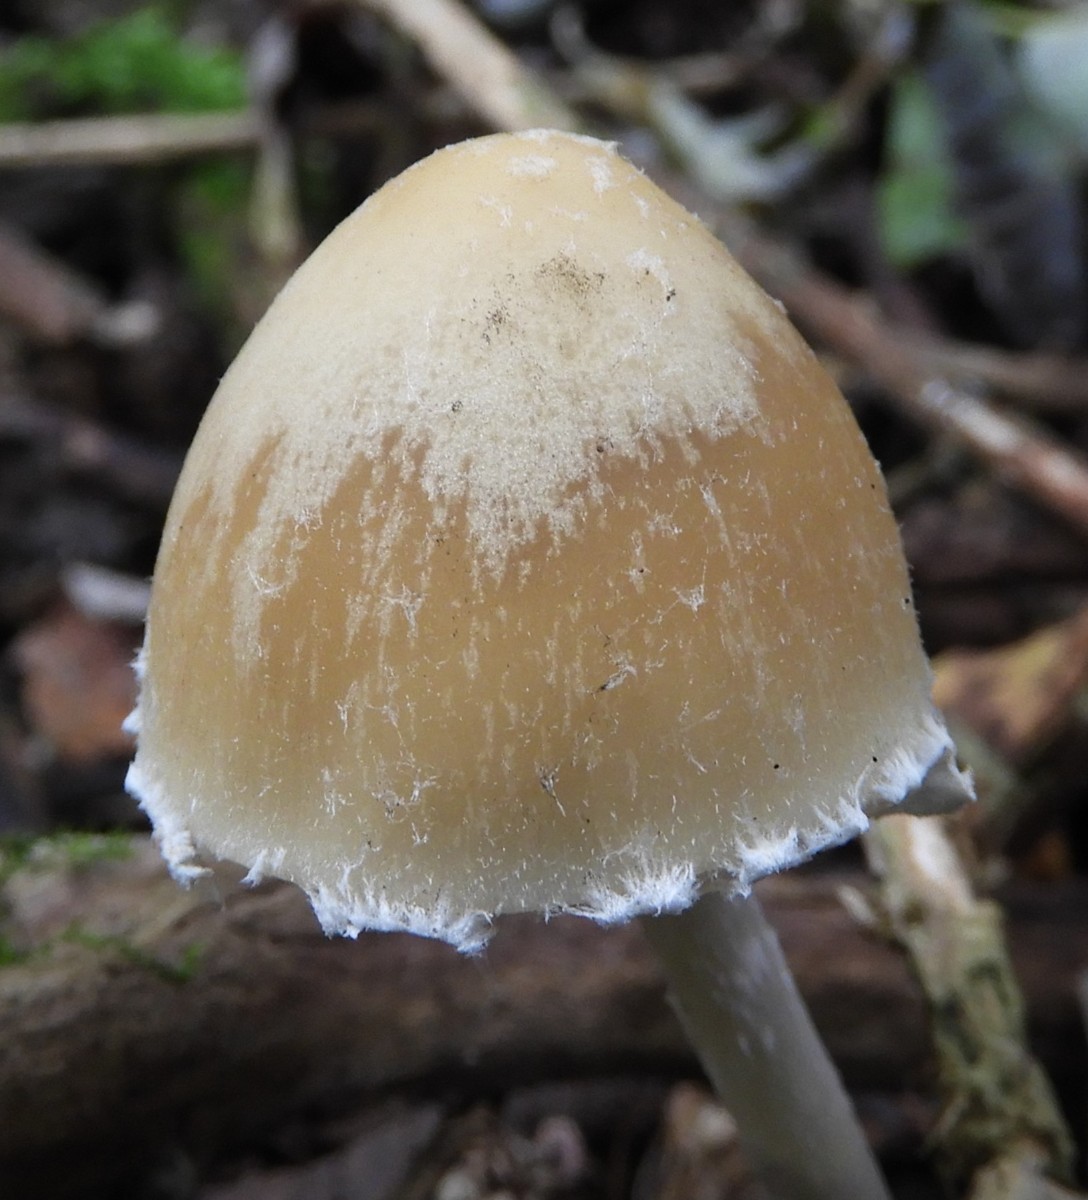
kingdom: Fungi
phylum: Basidiomycota
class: Agaricomycetes
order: Agaricales
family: Psathyrellaceae
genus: Candolleomyces
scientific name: Candolleomyces candolleanus
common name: Candolles mørkhat
